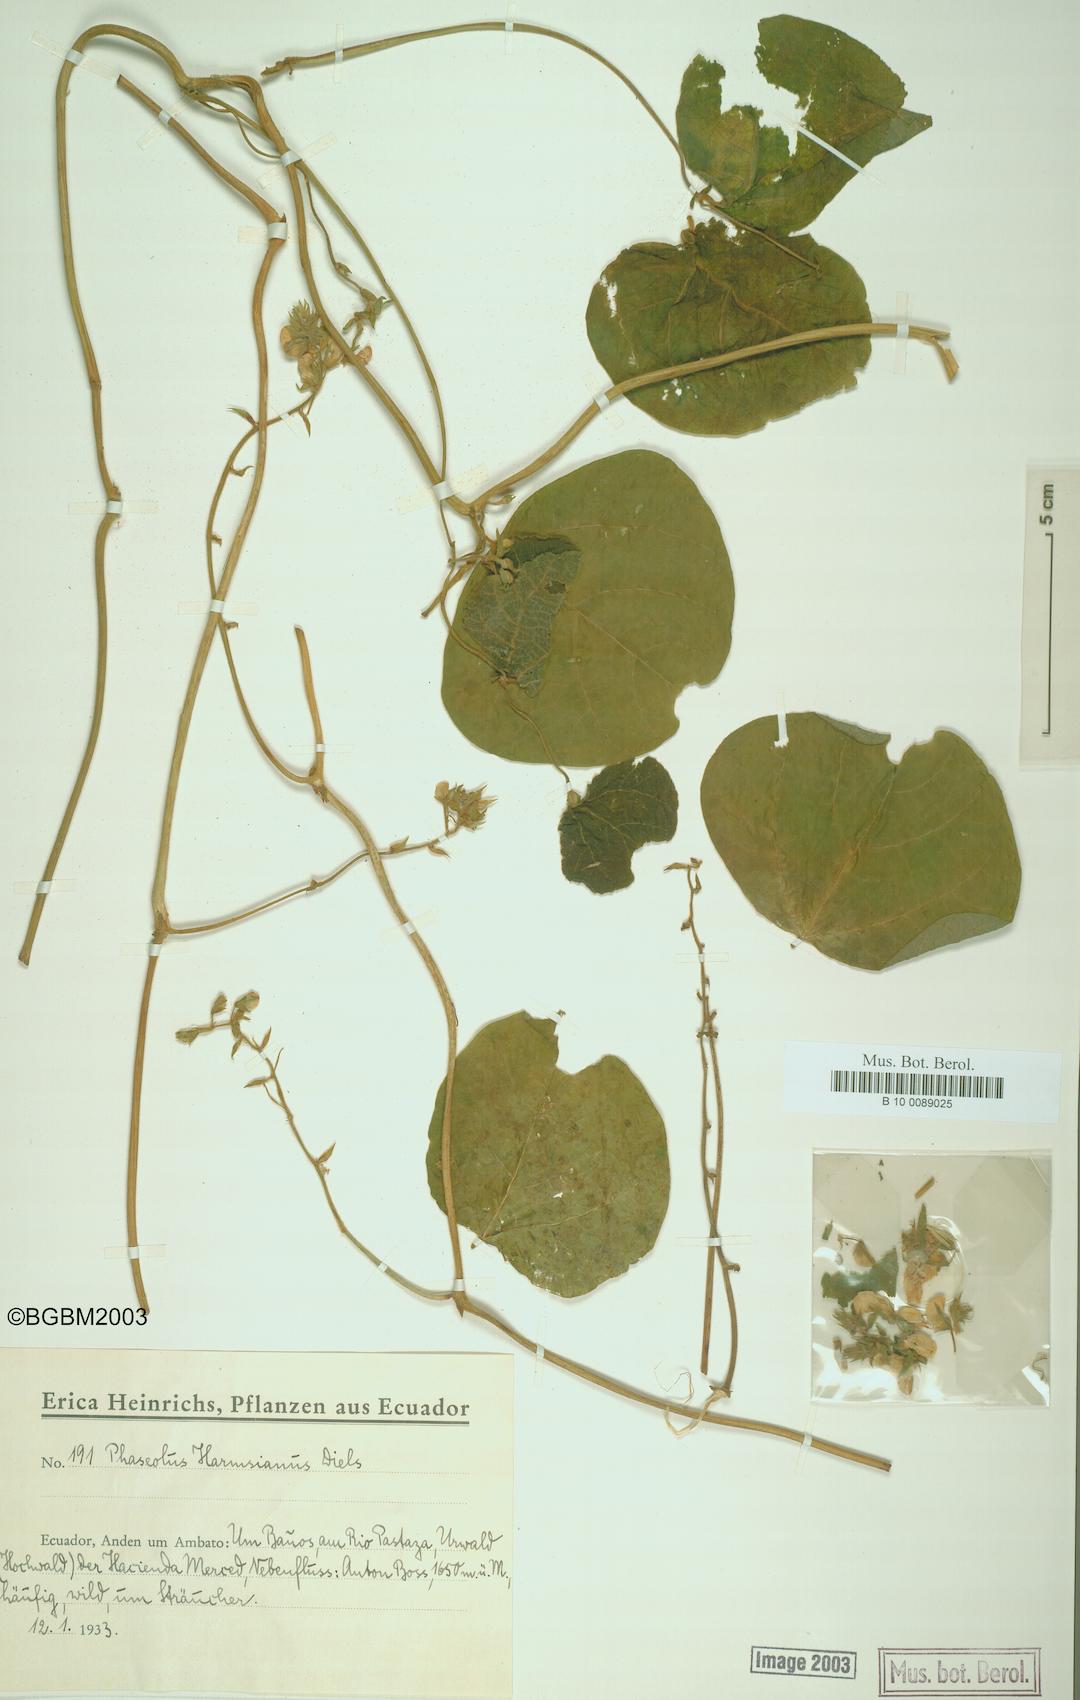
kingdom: Plantae
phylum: Tracheophyta
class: Magnoliopsida
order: Fabales
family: Fabaceae
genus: Phaseolus
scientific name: Phaseolus dumosus
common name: Year bean
